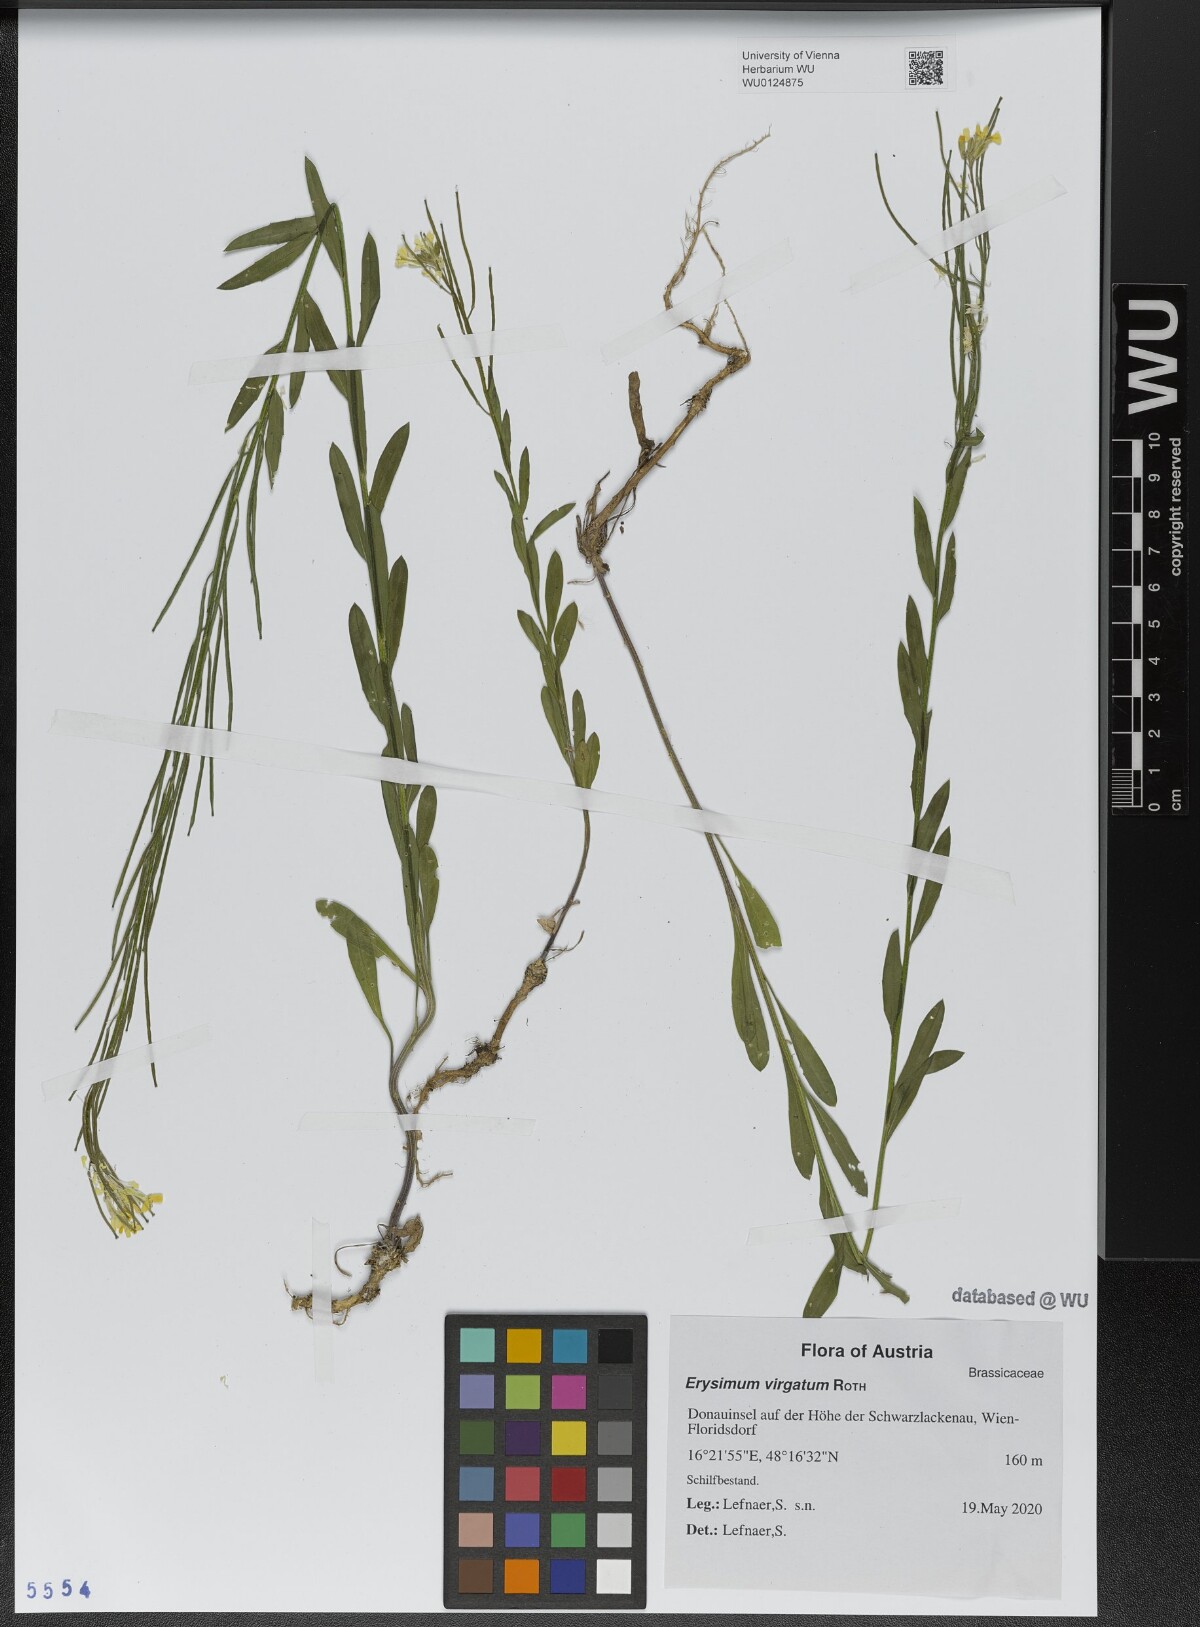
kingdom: Plantae
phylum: Tracheophyta
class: Magnoliopsida
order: Brassicales
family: Brassicaceae
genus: Erysimum
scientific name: Erysimum virgatum
